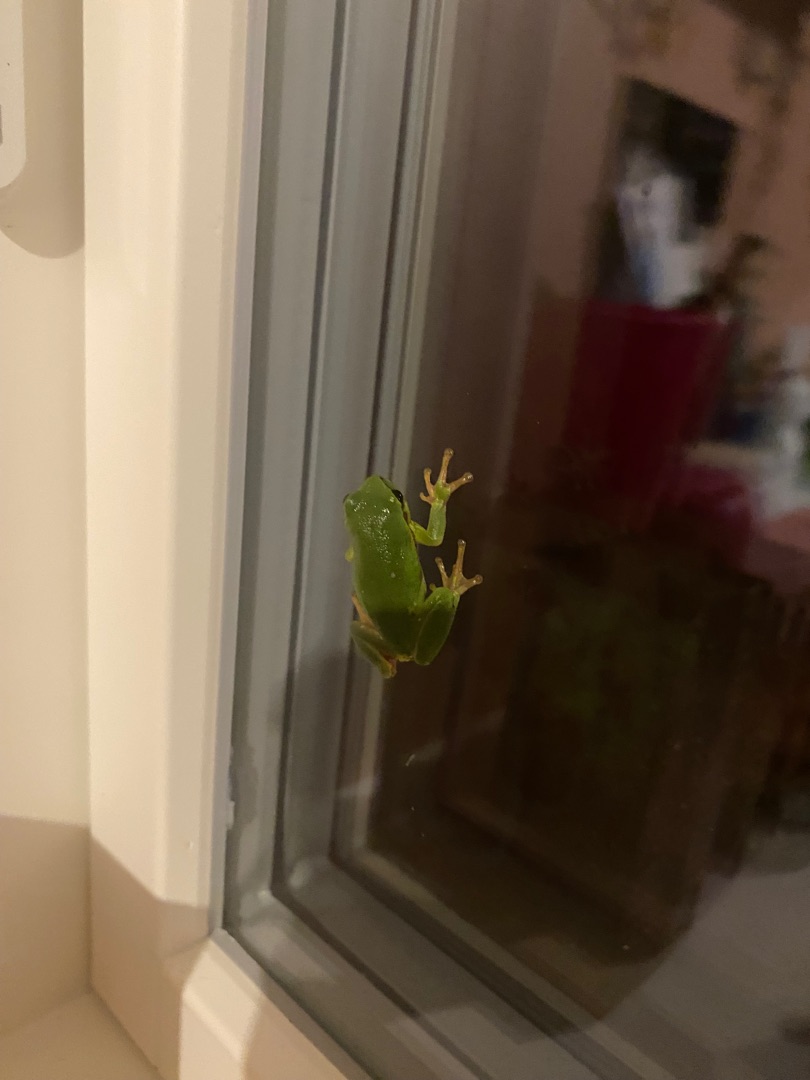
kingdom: Animalia
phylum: Chordata
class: Amphibia
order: Anura
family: Hylidae
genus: Hyla
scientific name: Hyla arborea
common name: Løvfrø
